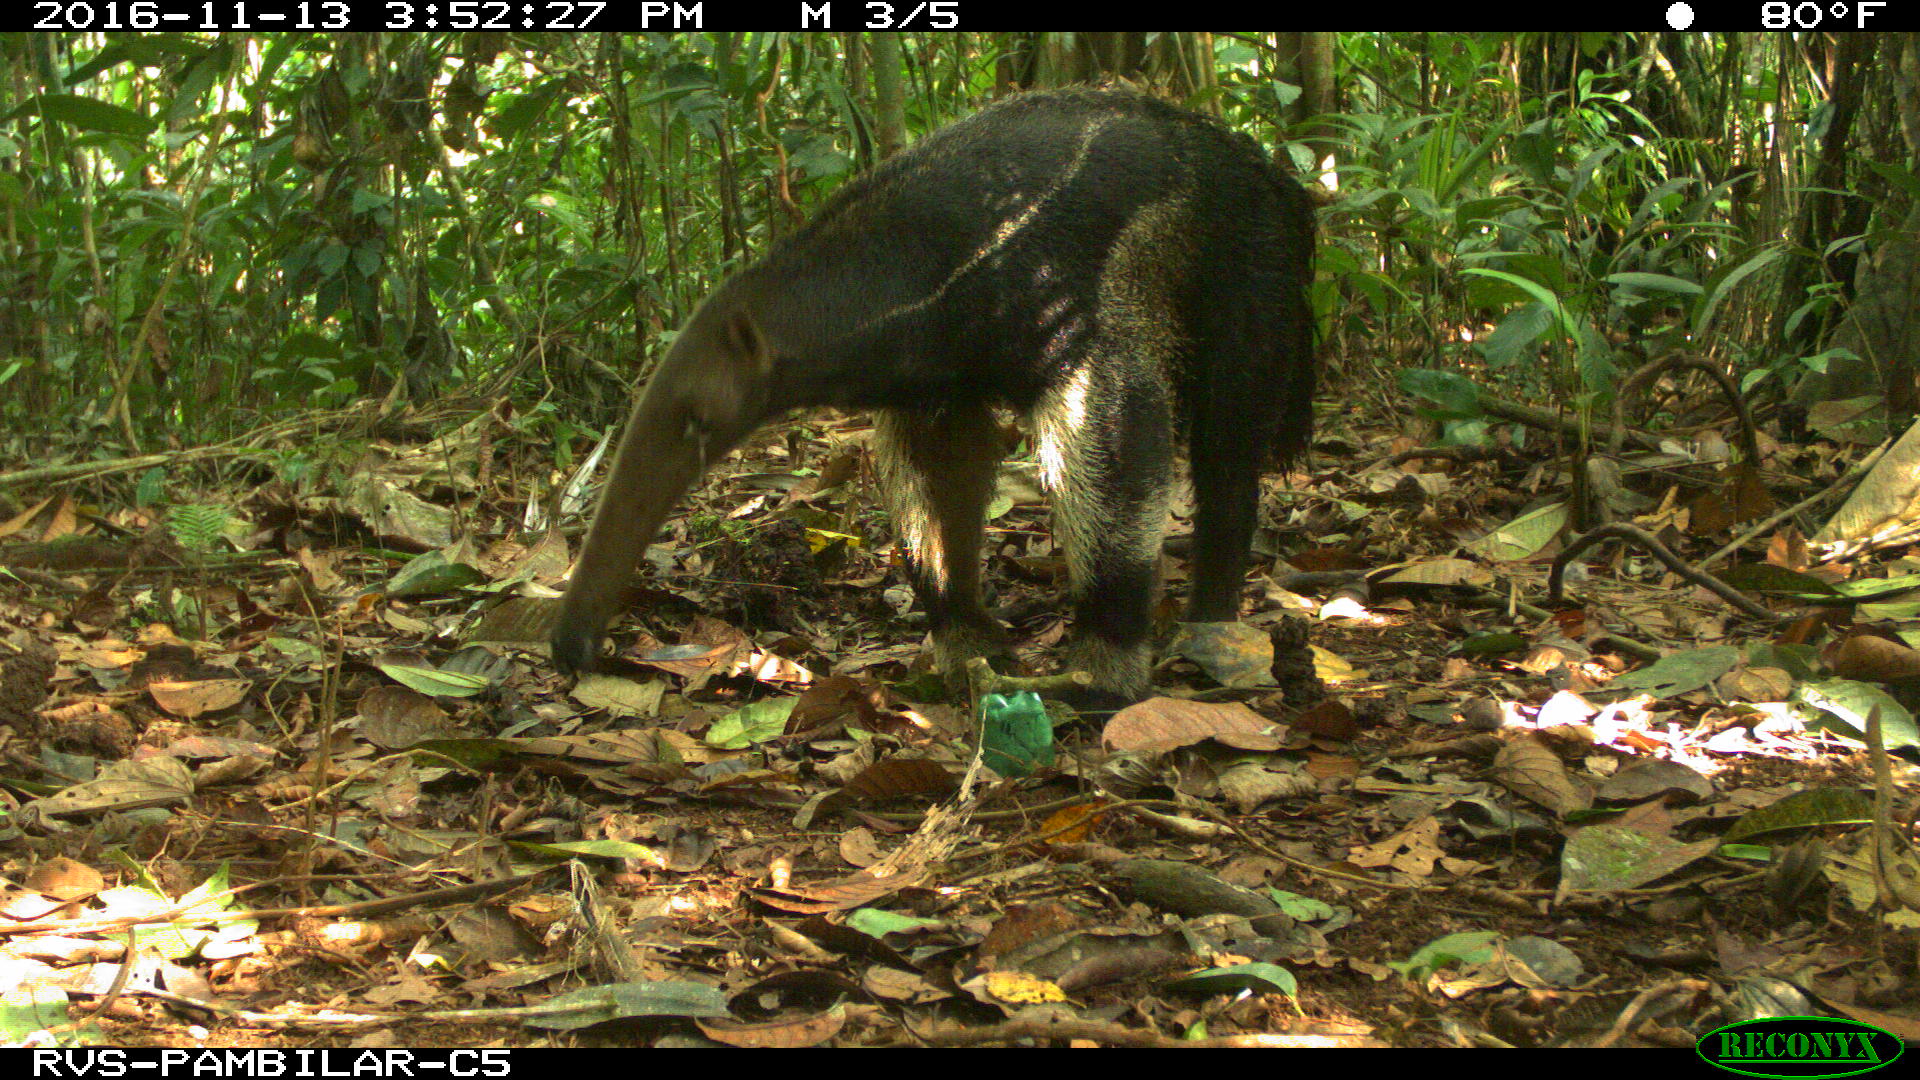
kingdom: Animalia
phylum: Chordata
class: Mammalia
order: Pilosa
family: Myrmecophagidae
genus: Myrmecophaga
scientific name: Myrmecophaga tridactyla
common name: Giant anteater
